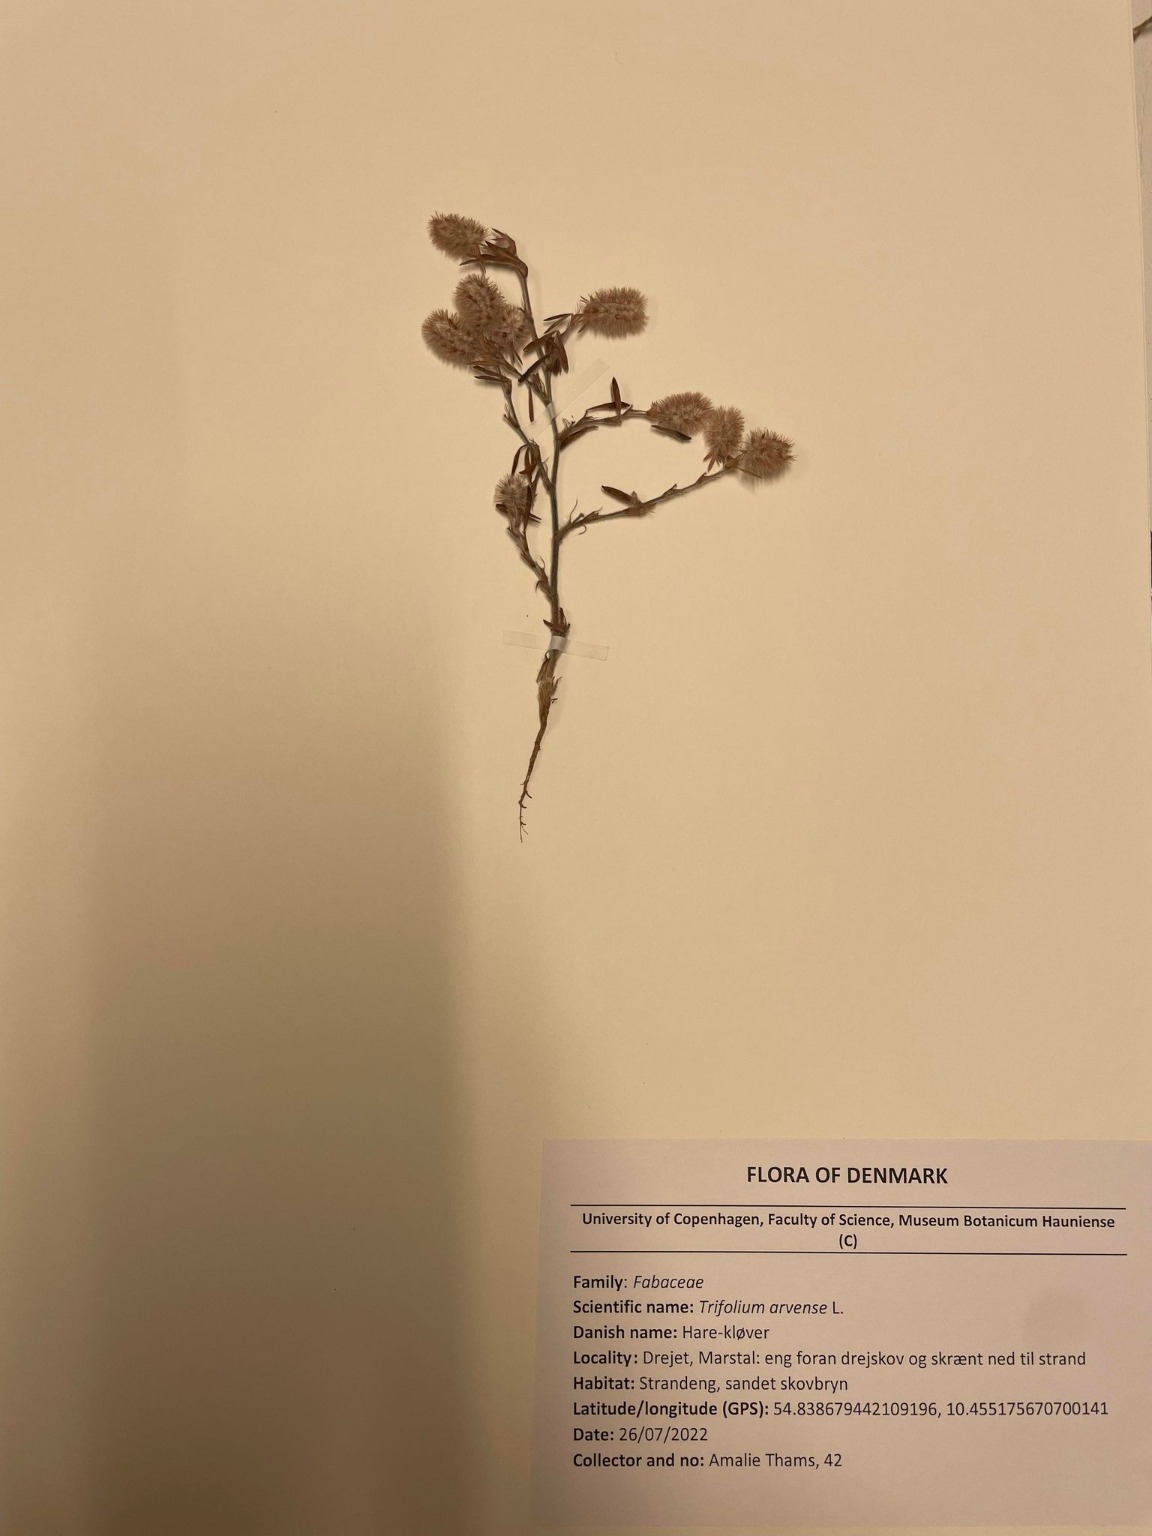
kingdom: Plantae
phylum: Tracheophyta
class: Magnoliopsida
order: Fabales
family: Fabaceae
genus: Trifolium
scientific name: Trifolium arvense
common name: Hare-kløver
